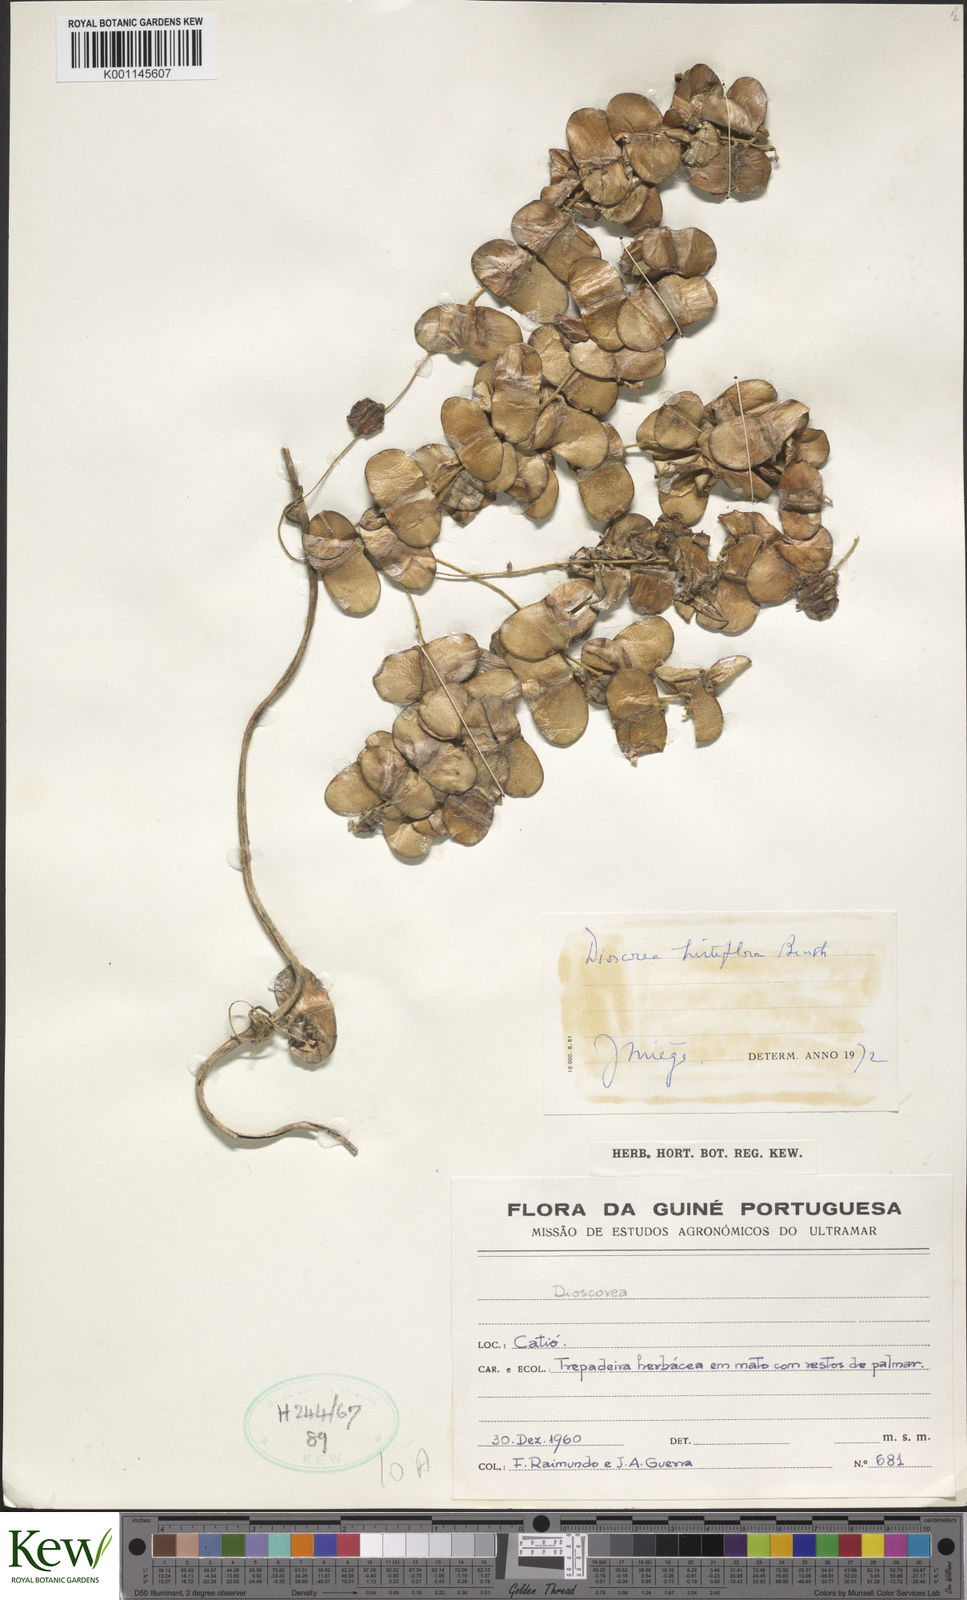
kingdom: Plantae
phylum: Tracheophyta
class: Liliopsida
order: Dioscoreales
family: Dioscoreaceae
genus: Dioscorea
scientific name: Dioscorea hirtiflora
